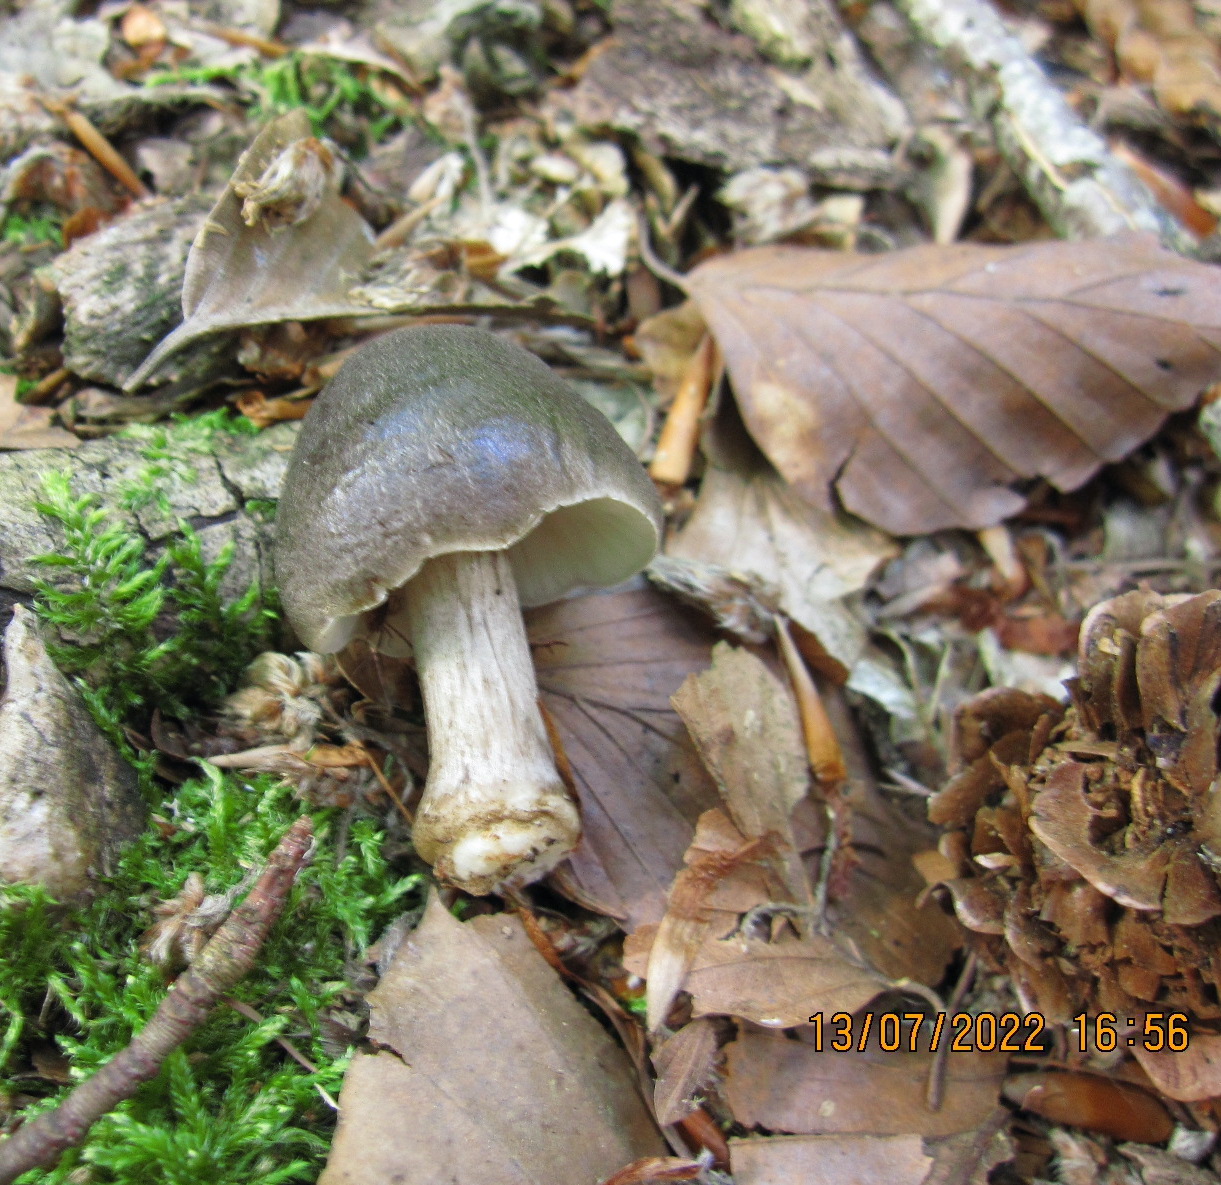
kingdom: Fungi
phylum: Basidiomycota
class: Agaricomycetes
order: Agaricales
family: Pluteaceae
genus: Pluteus
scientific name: Pluteus cervinus
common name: sodfarvet skærmhat
